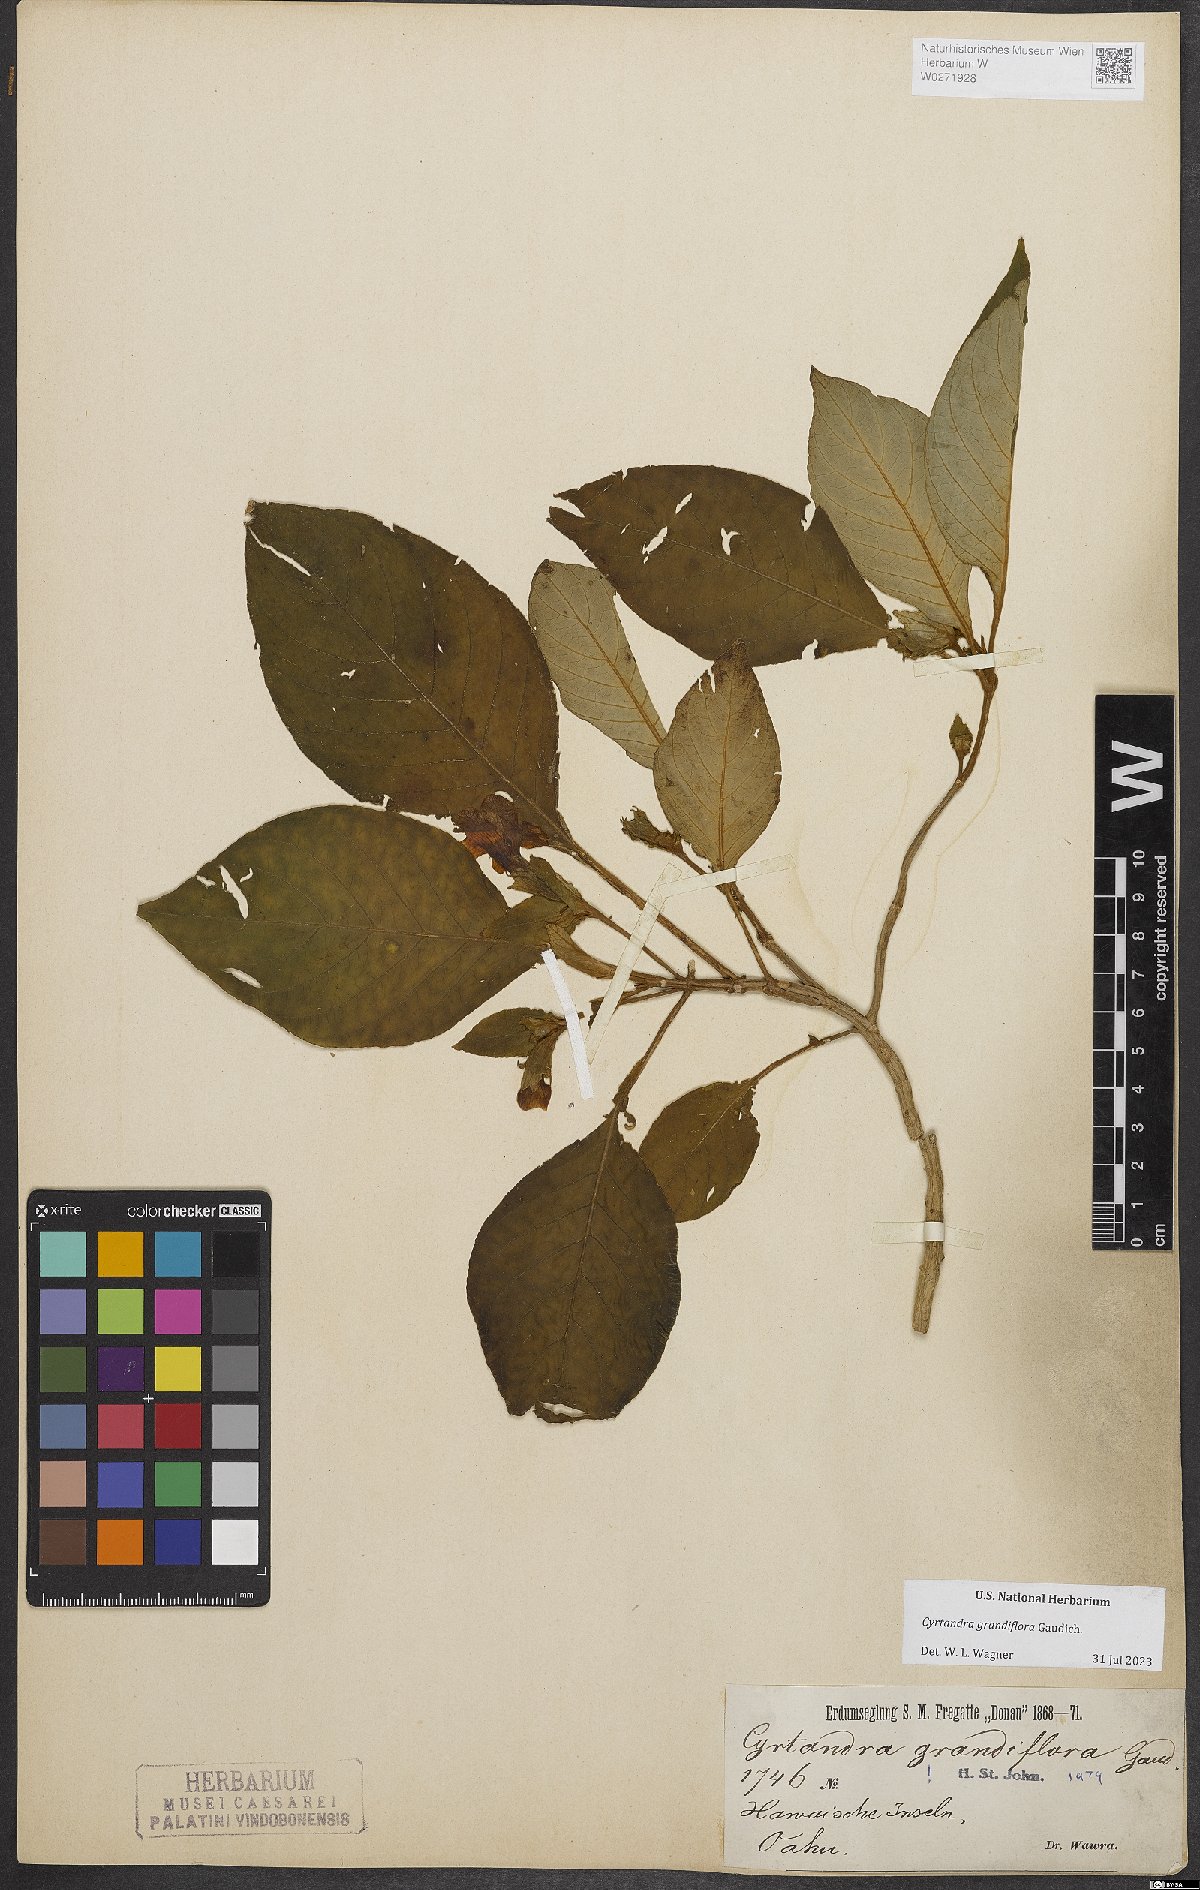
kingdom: Plantae
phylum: Tracheophyta
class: Magnoliopsida
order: Lamiales
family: Gesneriaceae
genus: Cyrtandra
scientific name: Cyrtandra grandiflora
